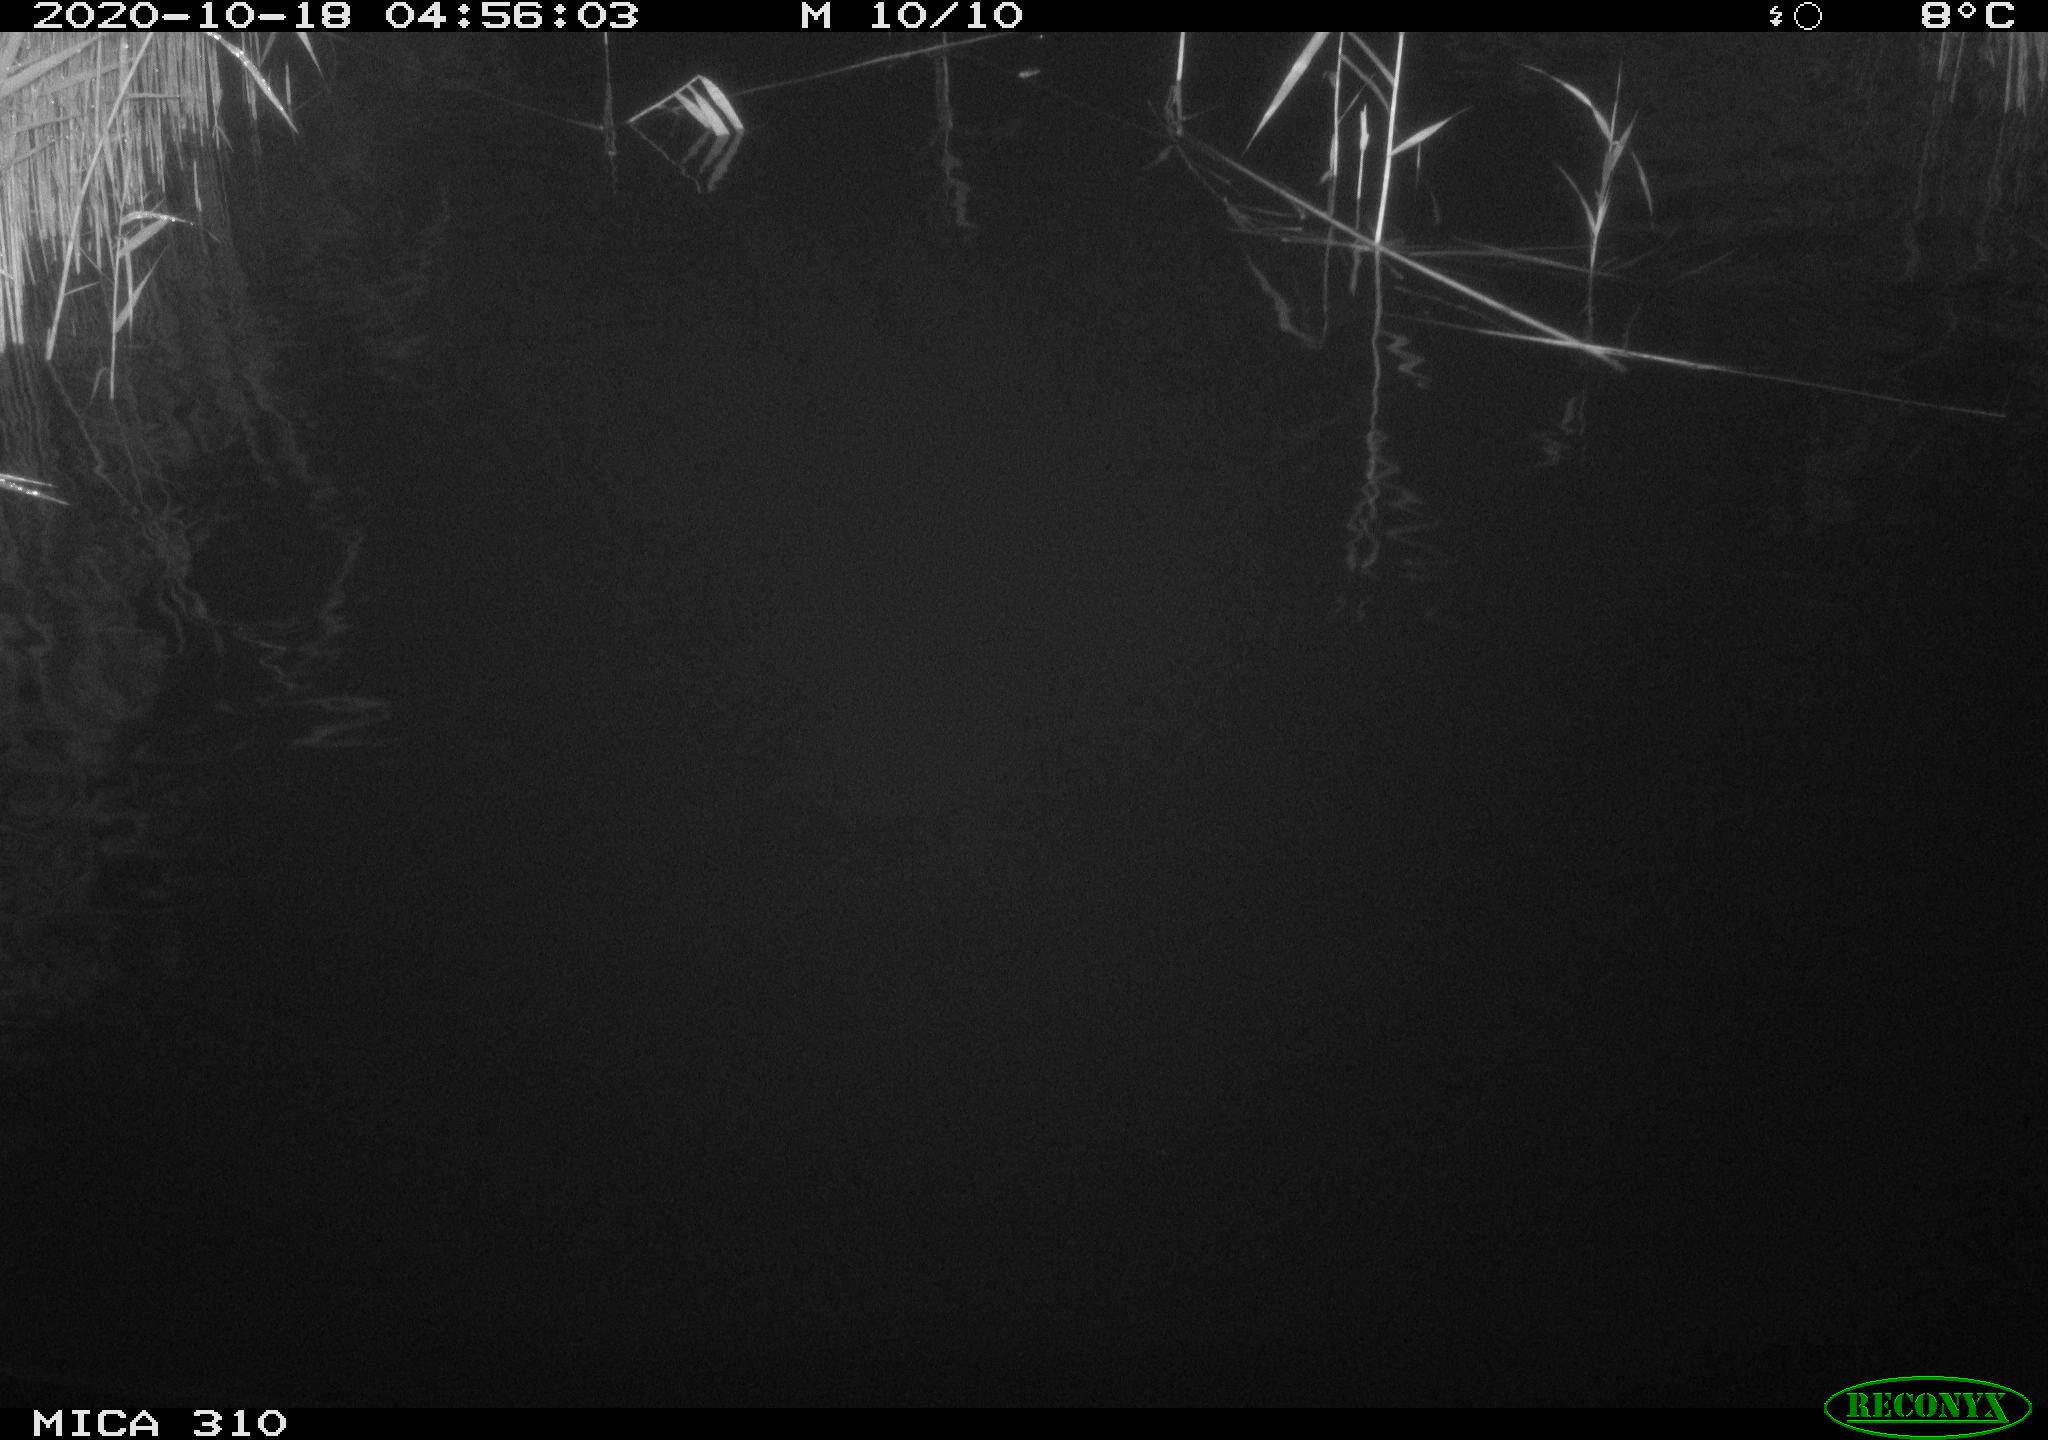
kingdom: Animalia
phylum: Chordata
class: Mammalia
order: Rodentia
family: Cricetidae
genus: Ondatra
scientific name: Ondatra zibethicus
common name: Muskrat
